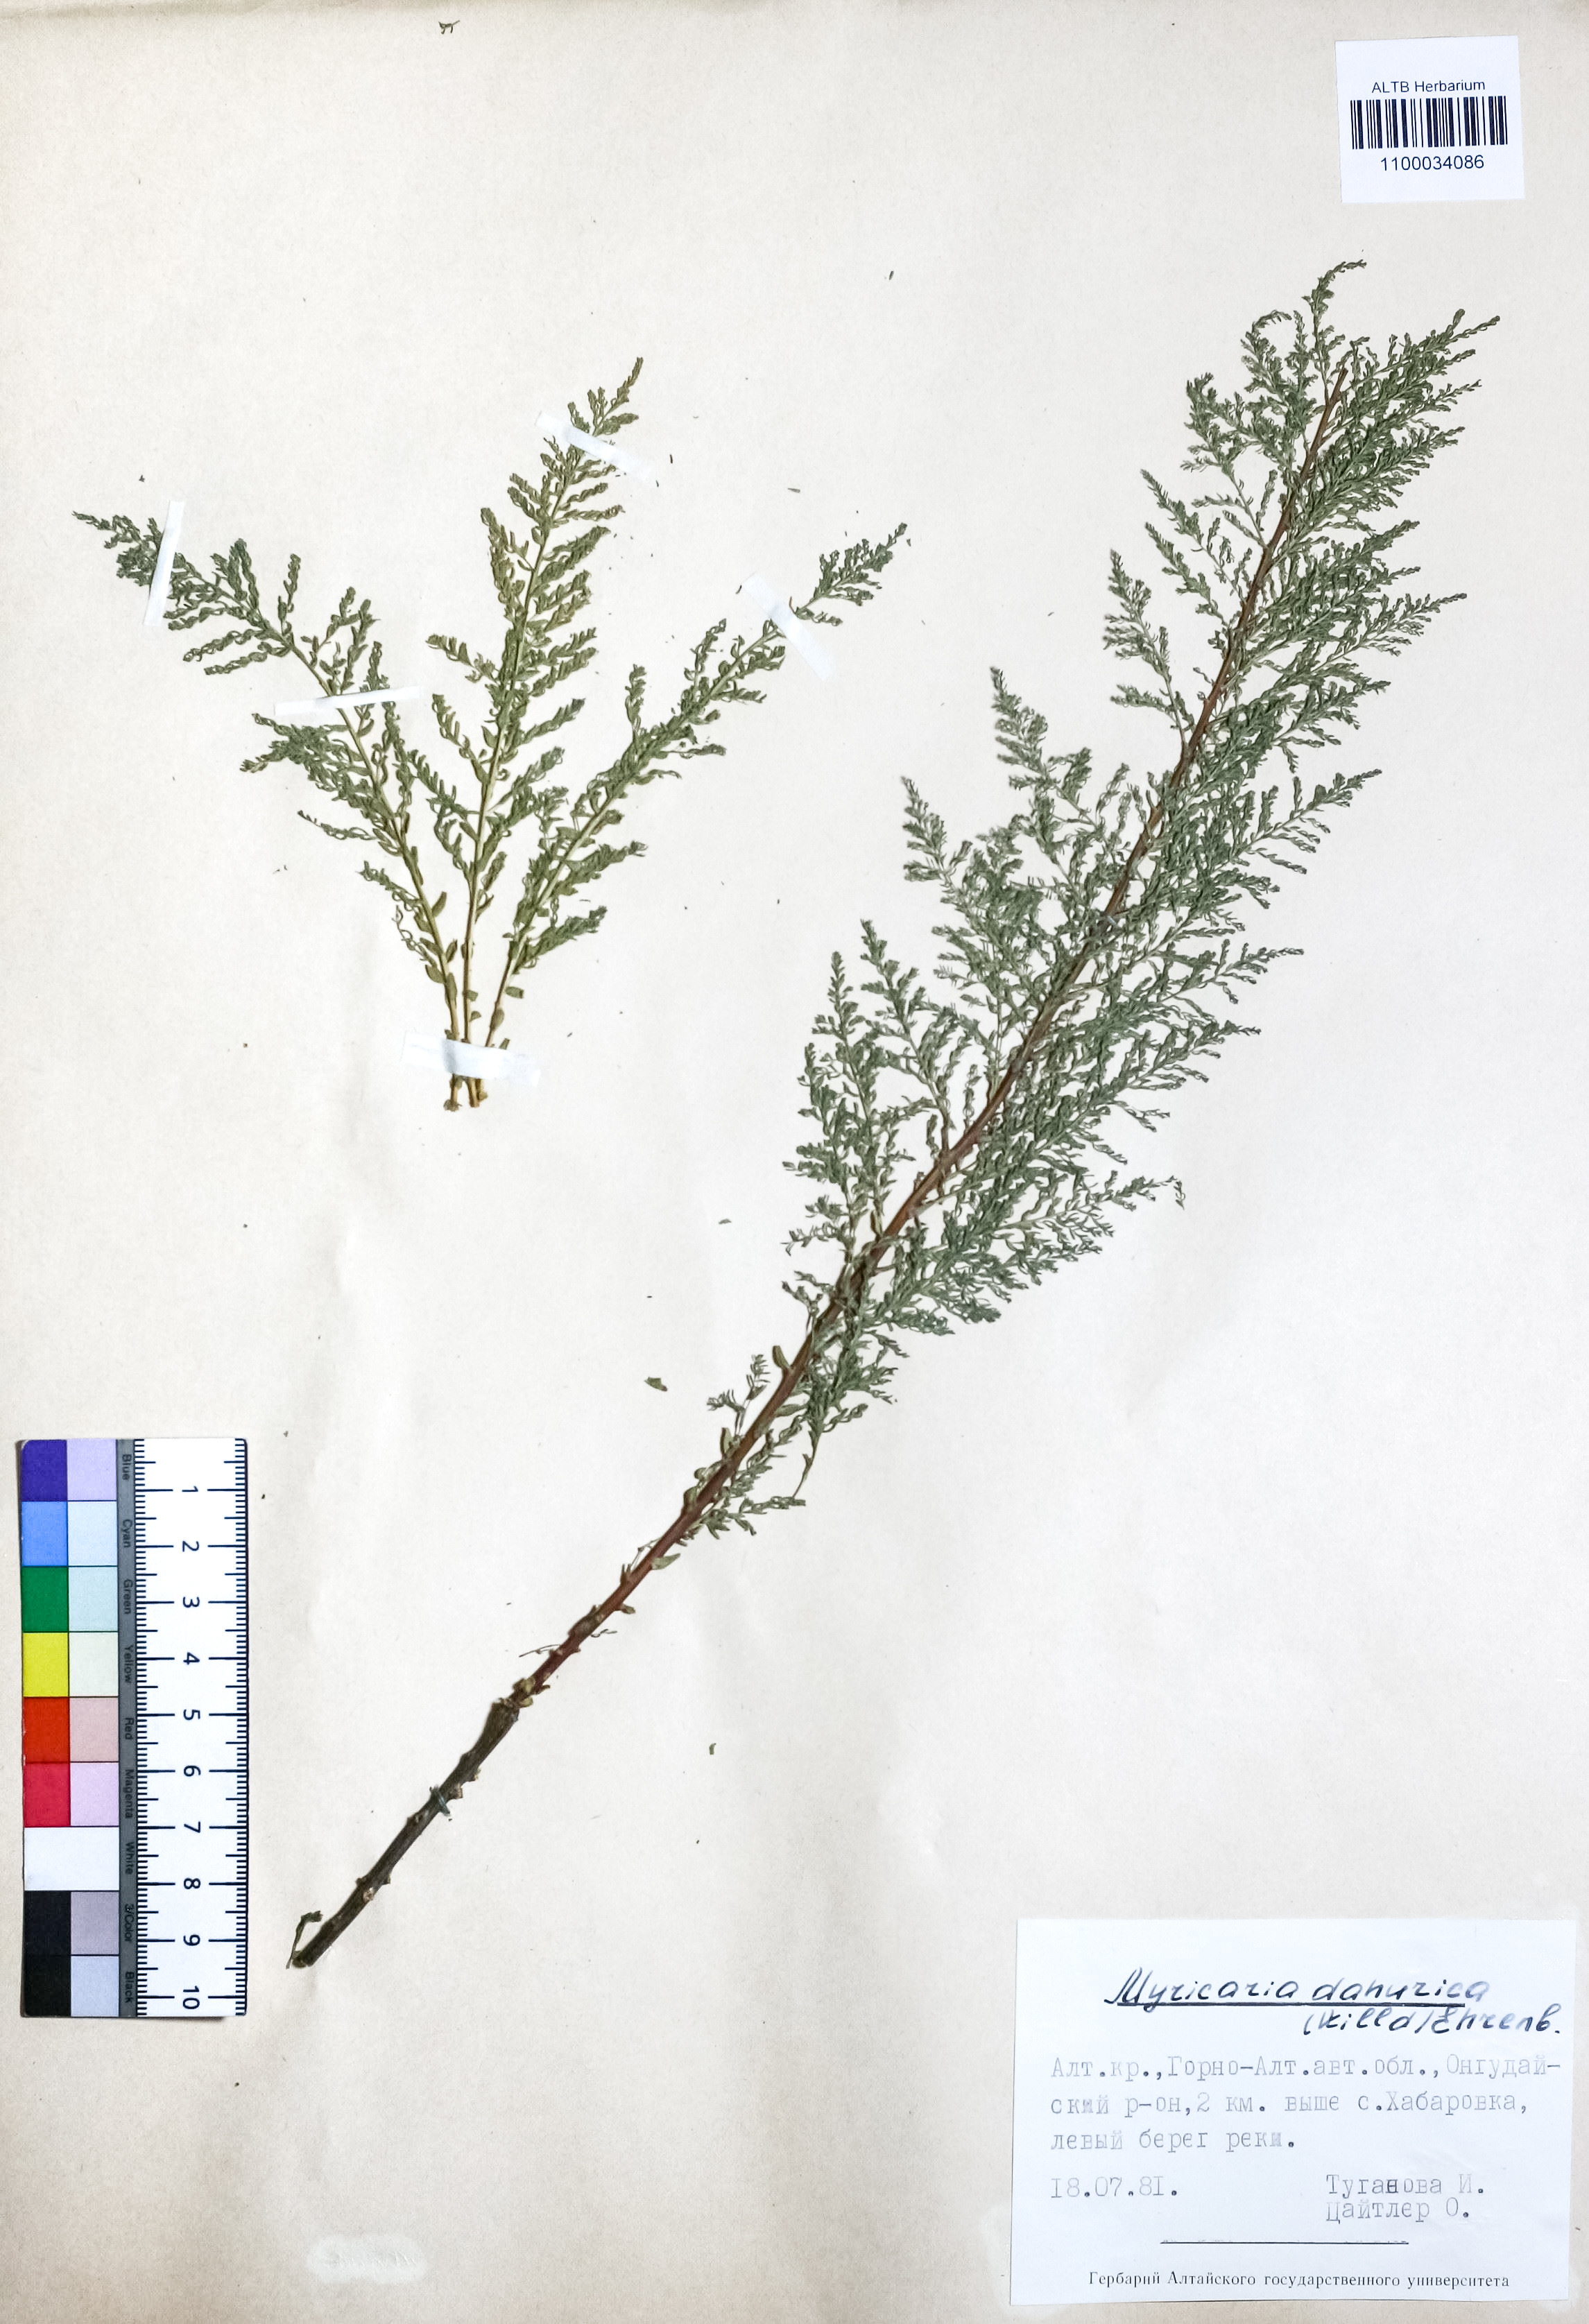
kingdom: Plantae
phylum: Tracheophyta
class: Magnoliopsida
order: Caryophyllales
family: Tamaricaceae
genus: Myricaria
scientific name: Myricaria davurica
